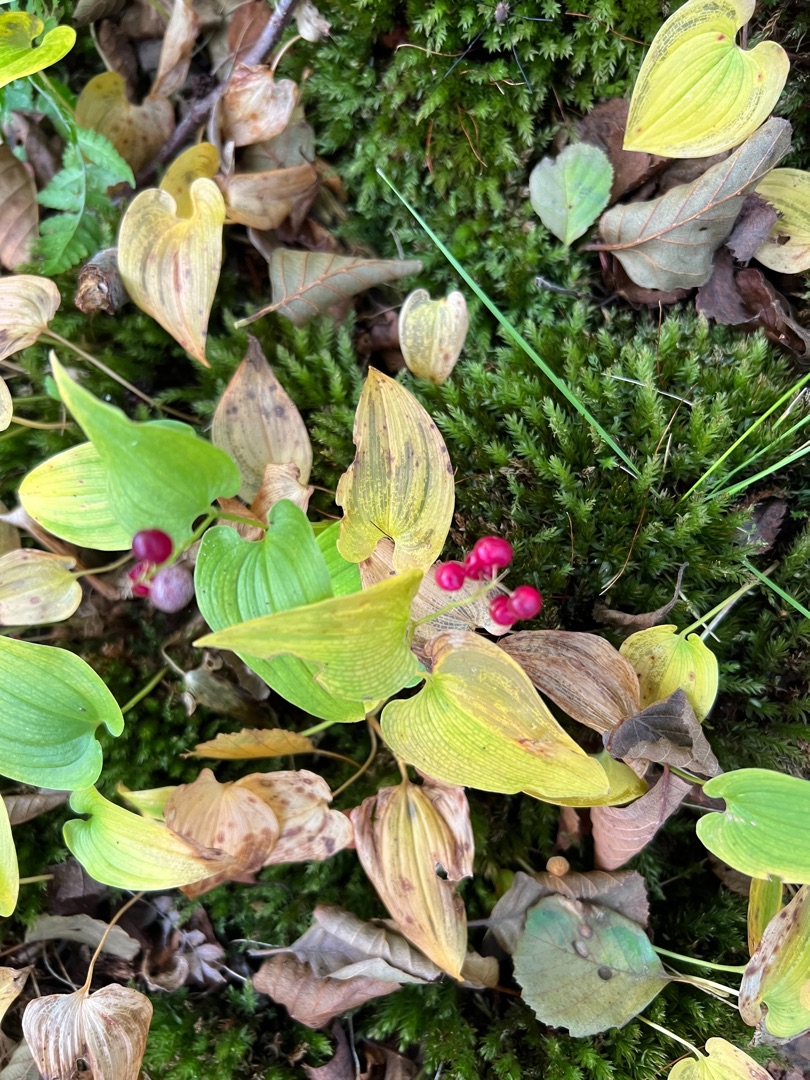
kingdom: Plantae
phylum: Tracheophyta
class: Liliopsida
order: Asparagales
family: Asparagaceae
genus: Maianthemum
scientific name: Maianthemum bifolium
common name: Majblomst
